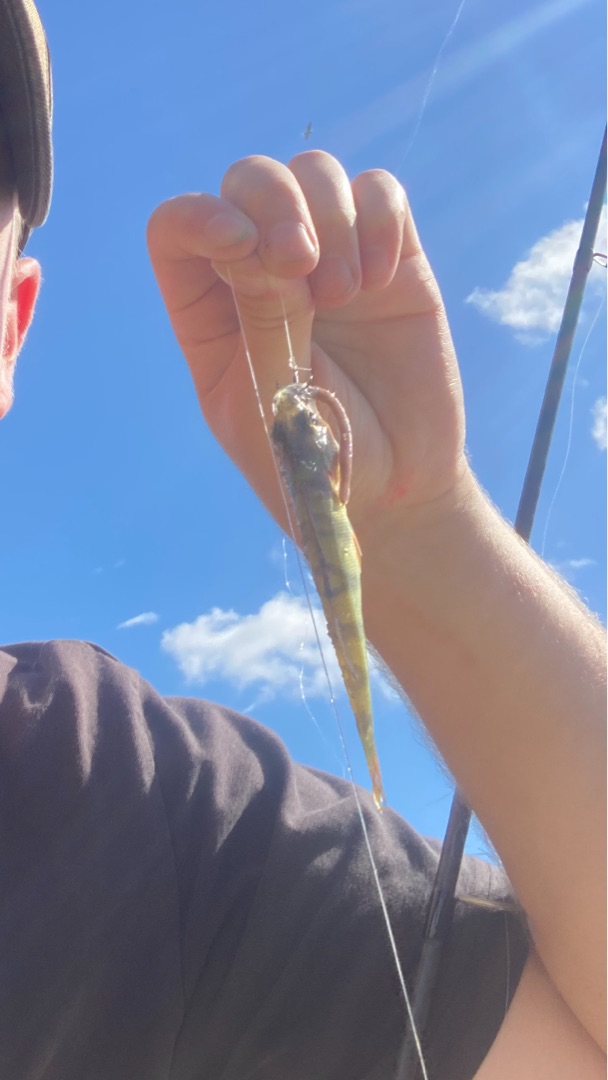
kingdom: Animalia
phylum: Chordata
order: Perciformes
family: Percidae
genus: Perca
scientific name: Perca fluviatilis
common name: Aborre
